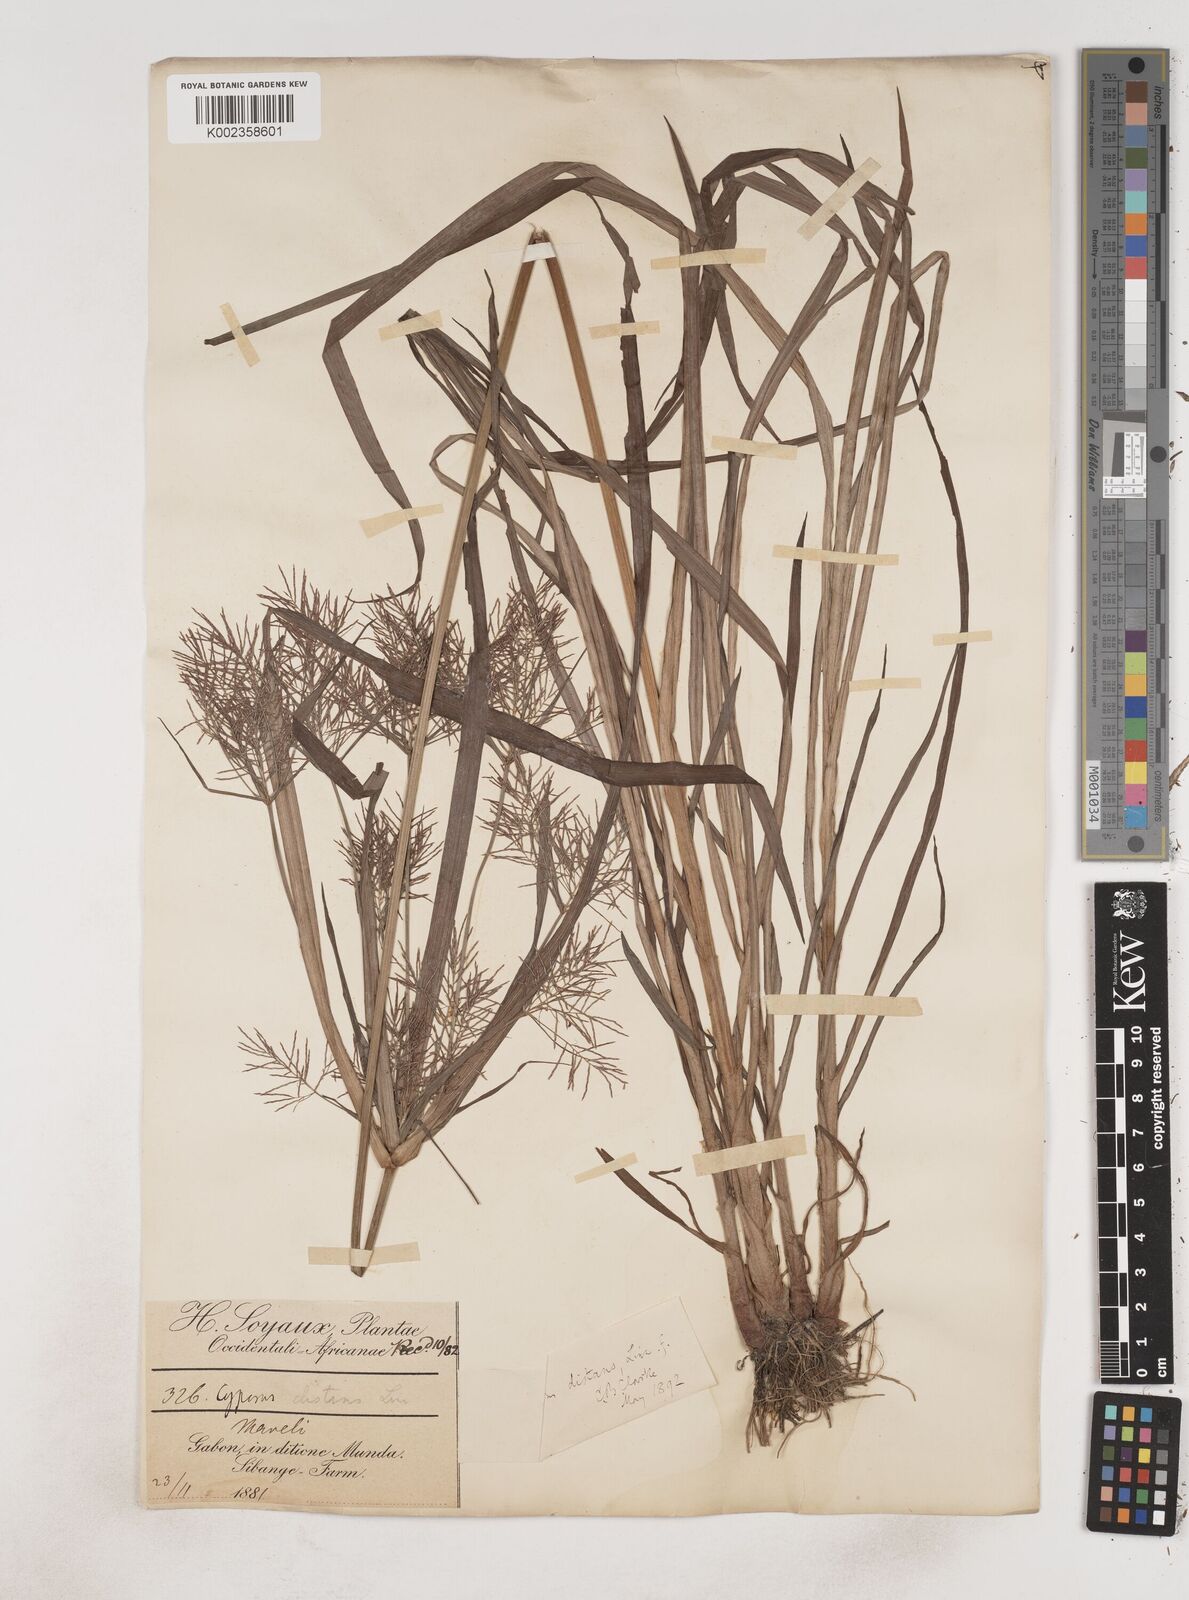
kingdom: Plantae
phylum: Tracheophyta
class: Liliopsida
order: Poales
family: Cyperaceae
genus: Cyperus
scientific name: Cyperus distans
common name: Slender cyperus
